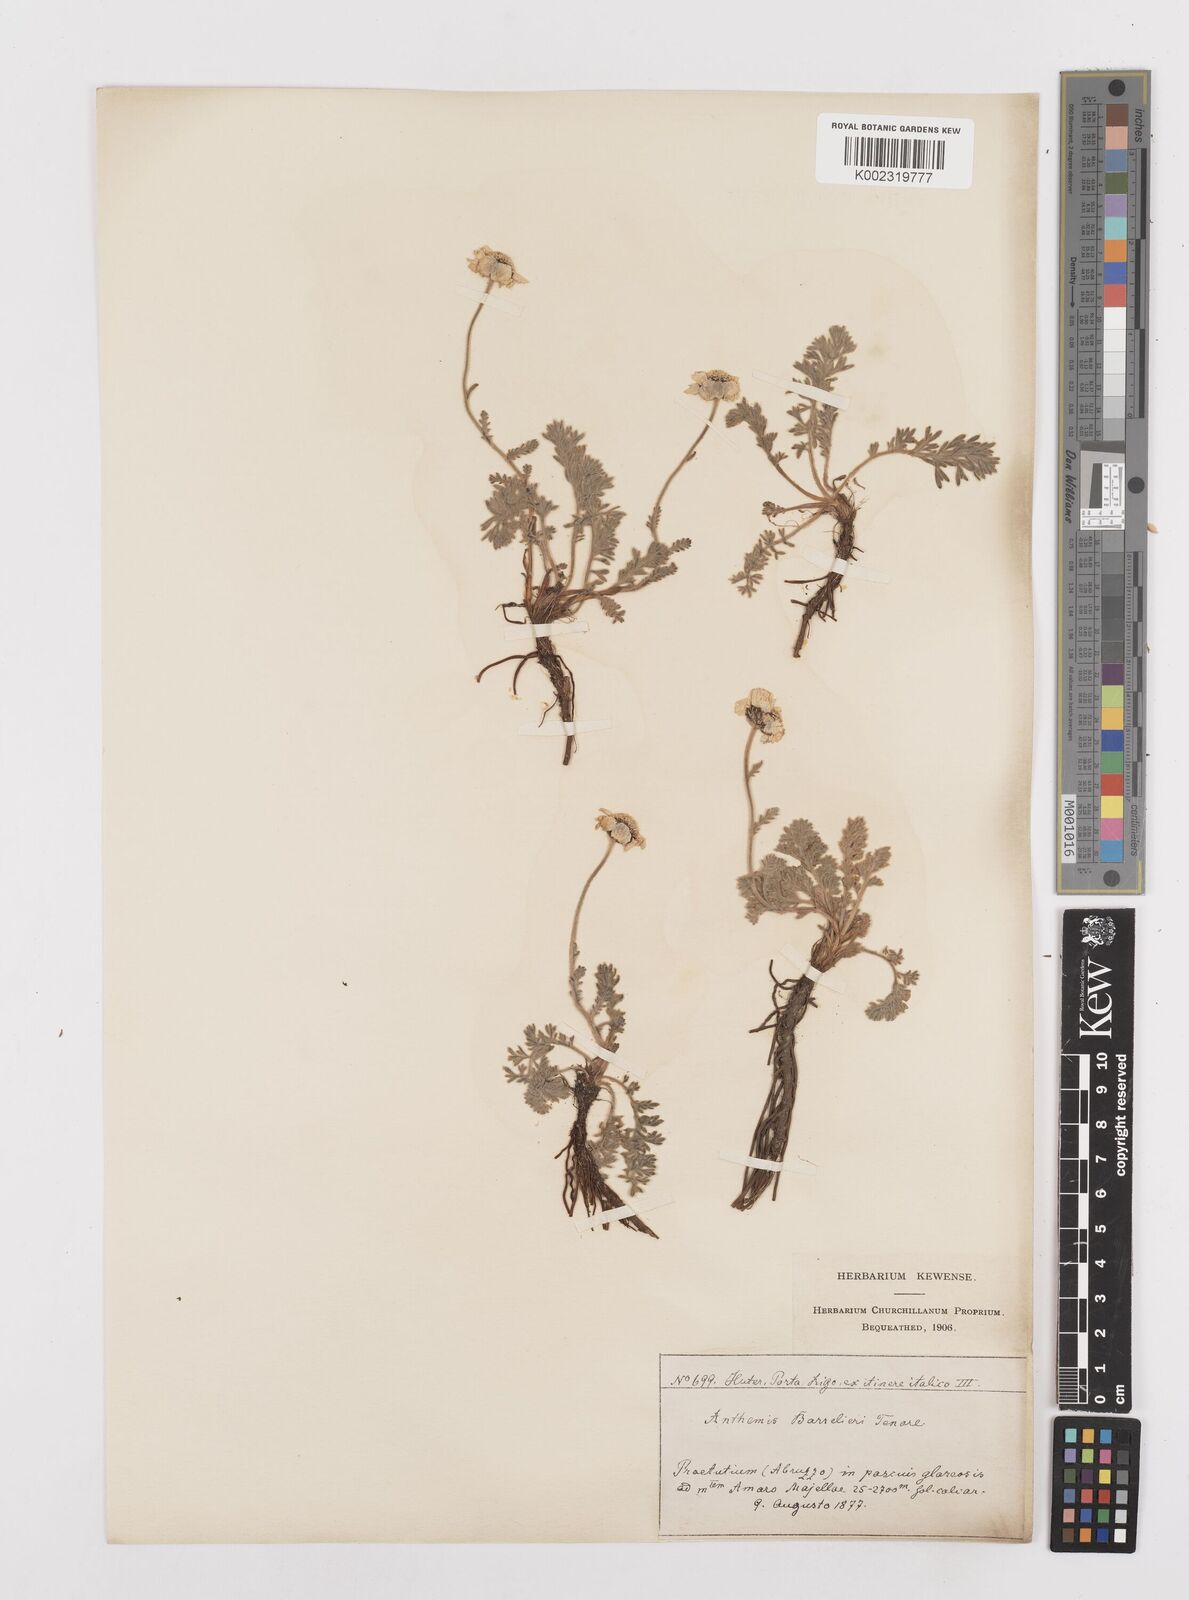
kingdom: Plantae
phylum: Tracheophyta
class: Magnoliopsida
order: Asterales
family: Asteraceae
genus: Achillea
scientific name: Achillea barrelieri
